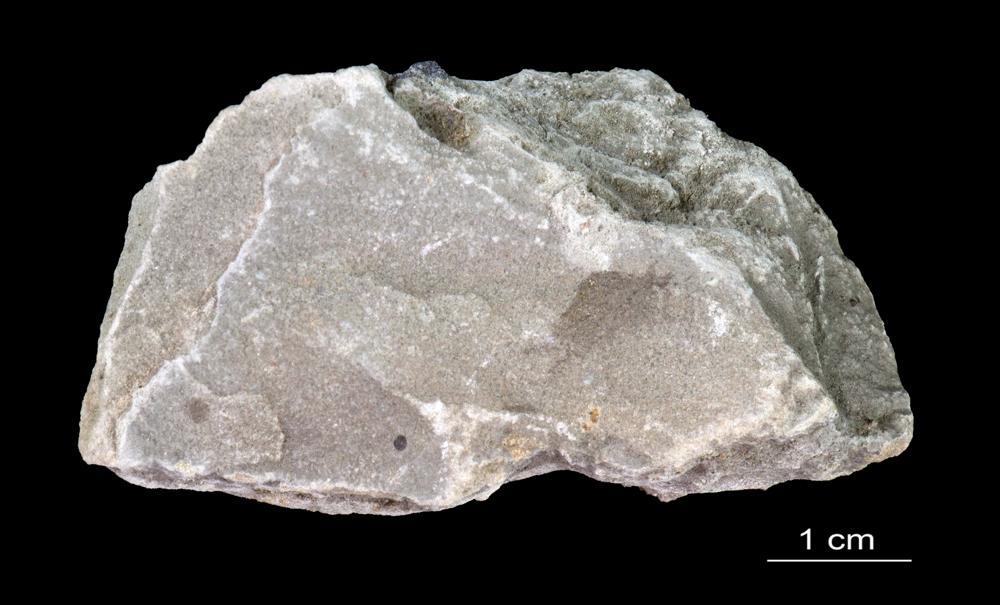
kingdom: Animalia
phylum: Arthropoda
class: Trilobita
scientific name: Trilobita
